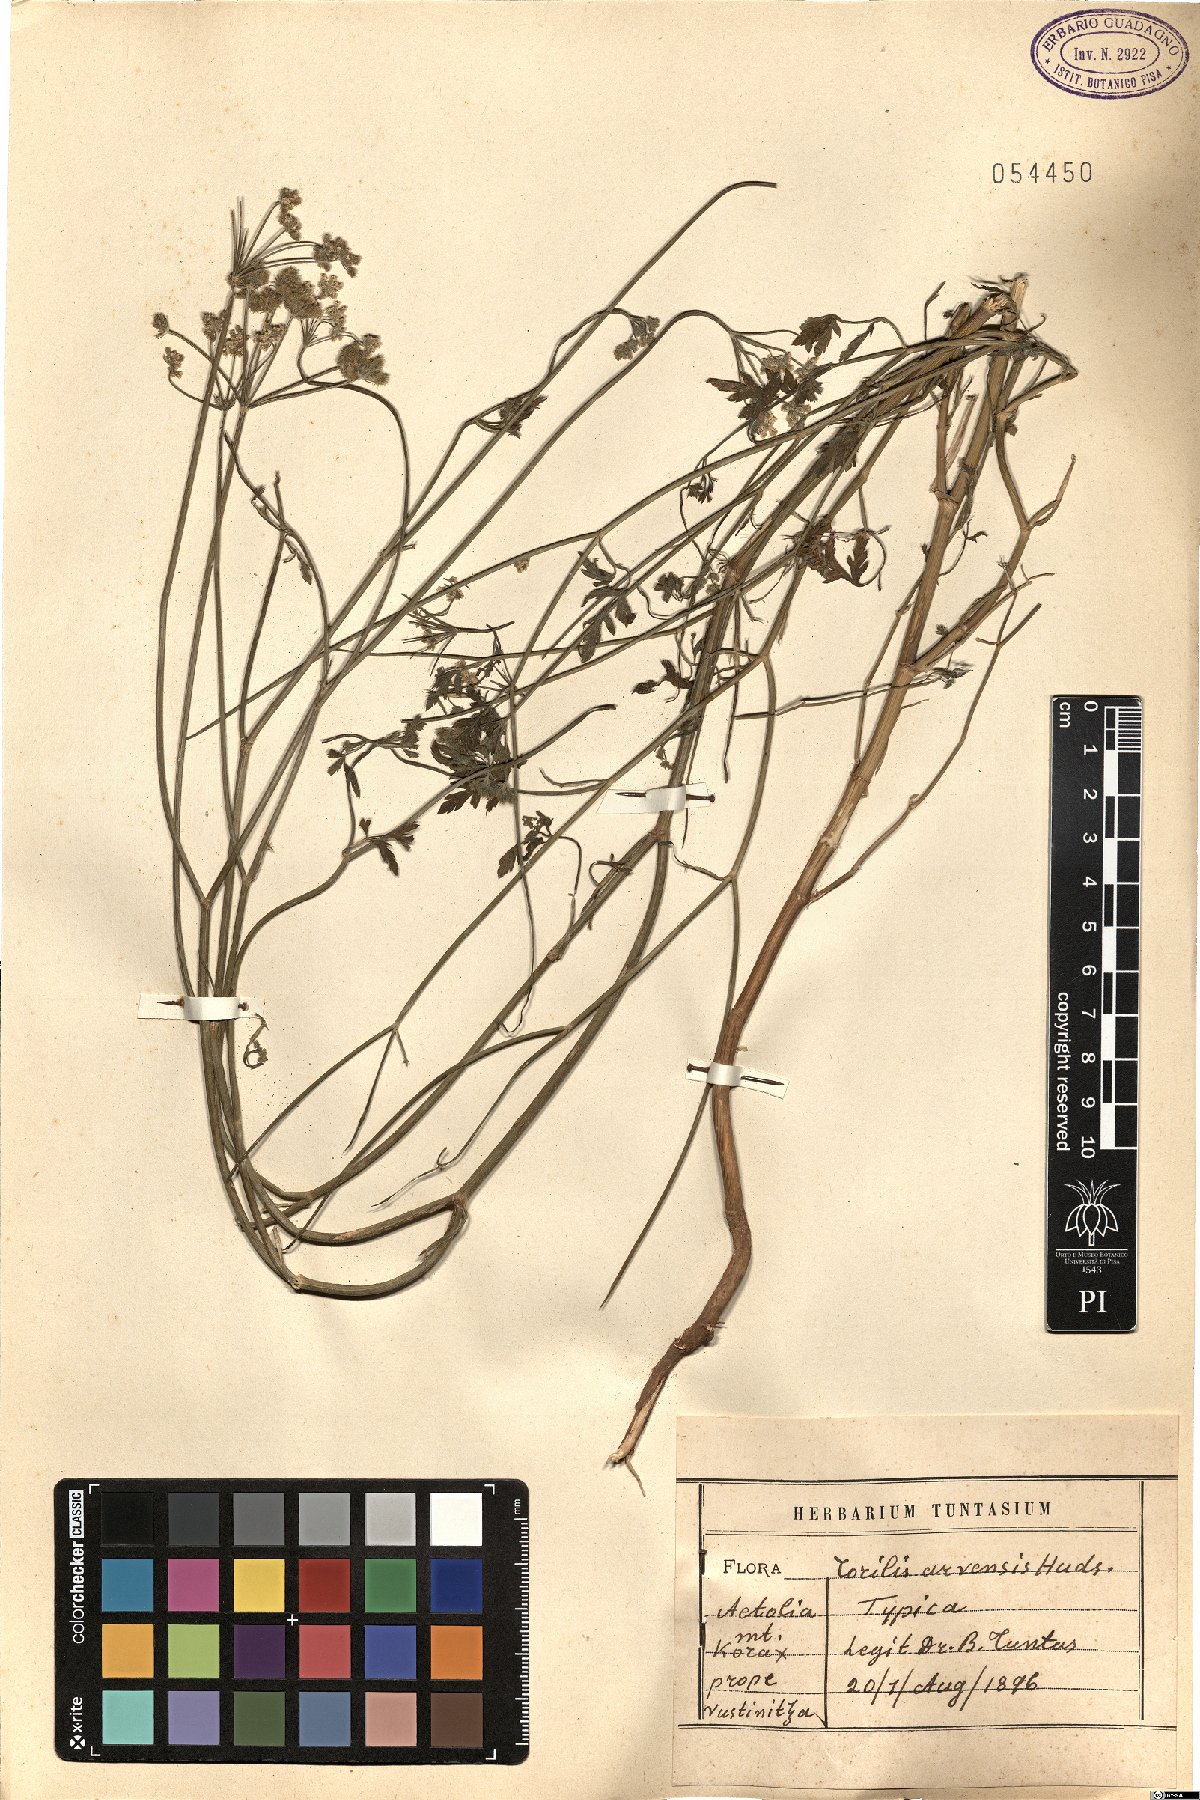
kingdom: Plantae
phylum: Tracheophyta
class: Magnoliopsida
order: Apiales
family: Apiaceae
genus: Torilis
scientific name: Torilis arvensis
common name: Spreading hedge-parsley
